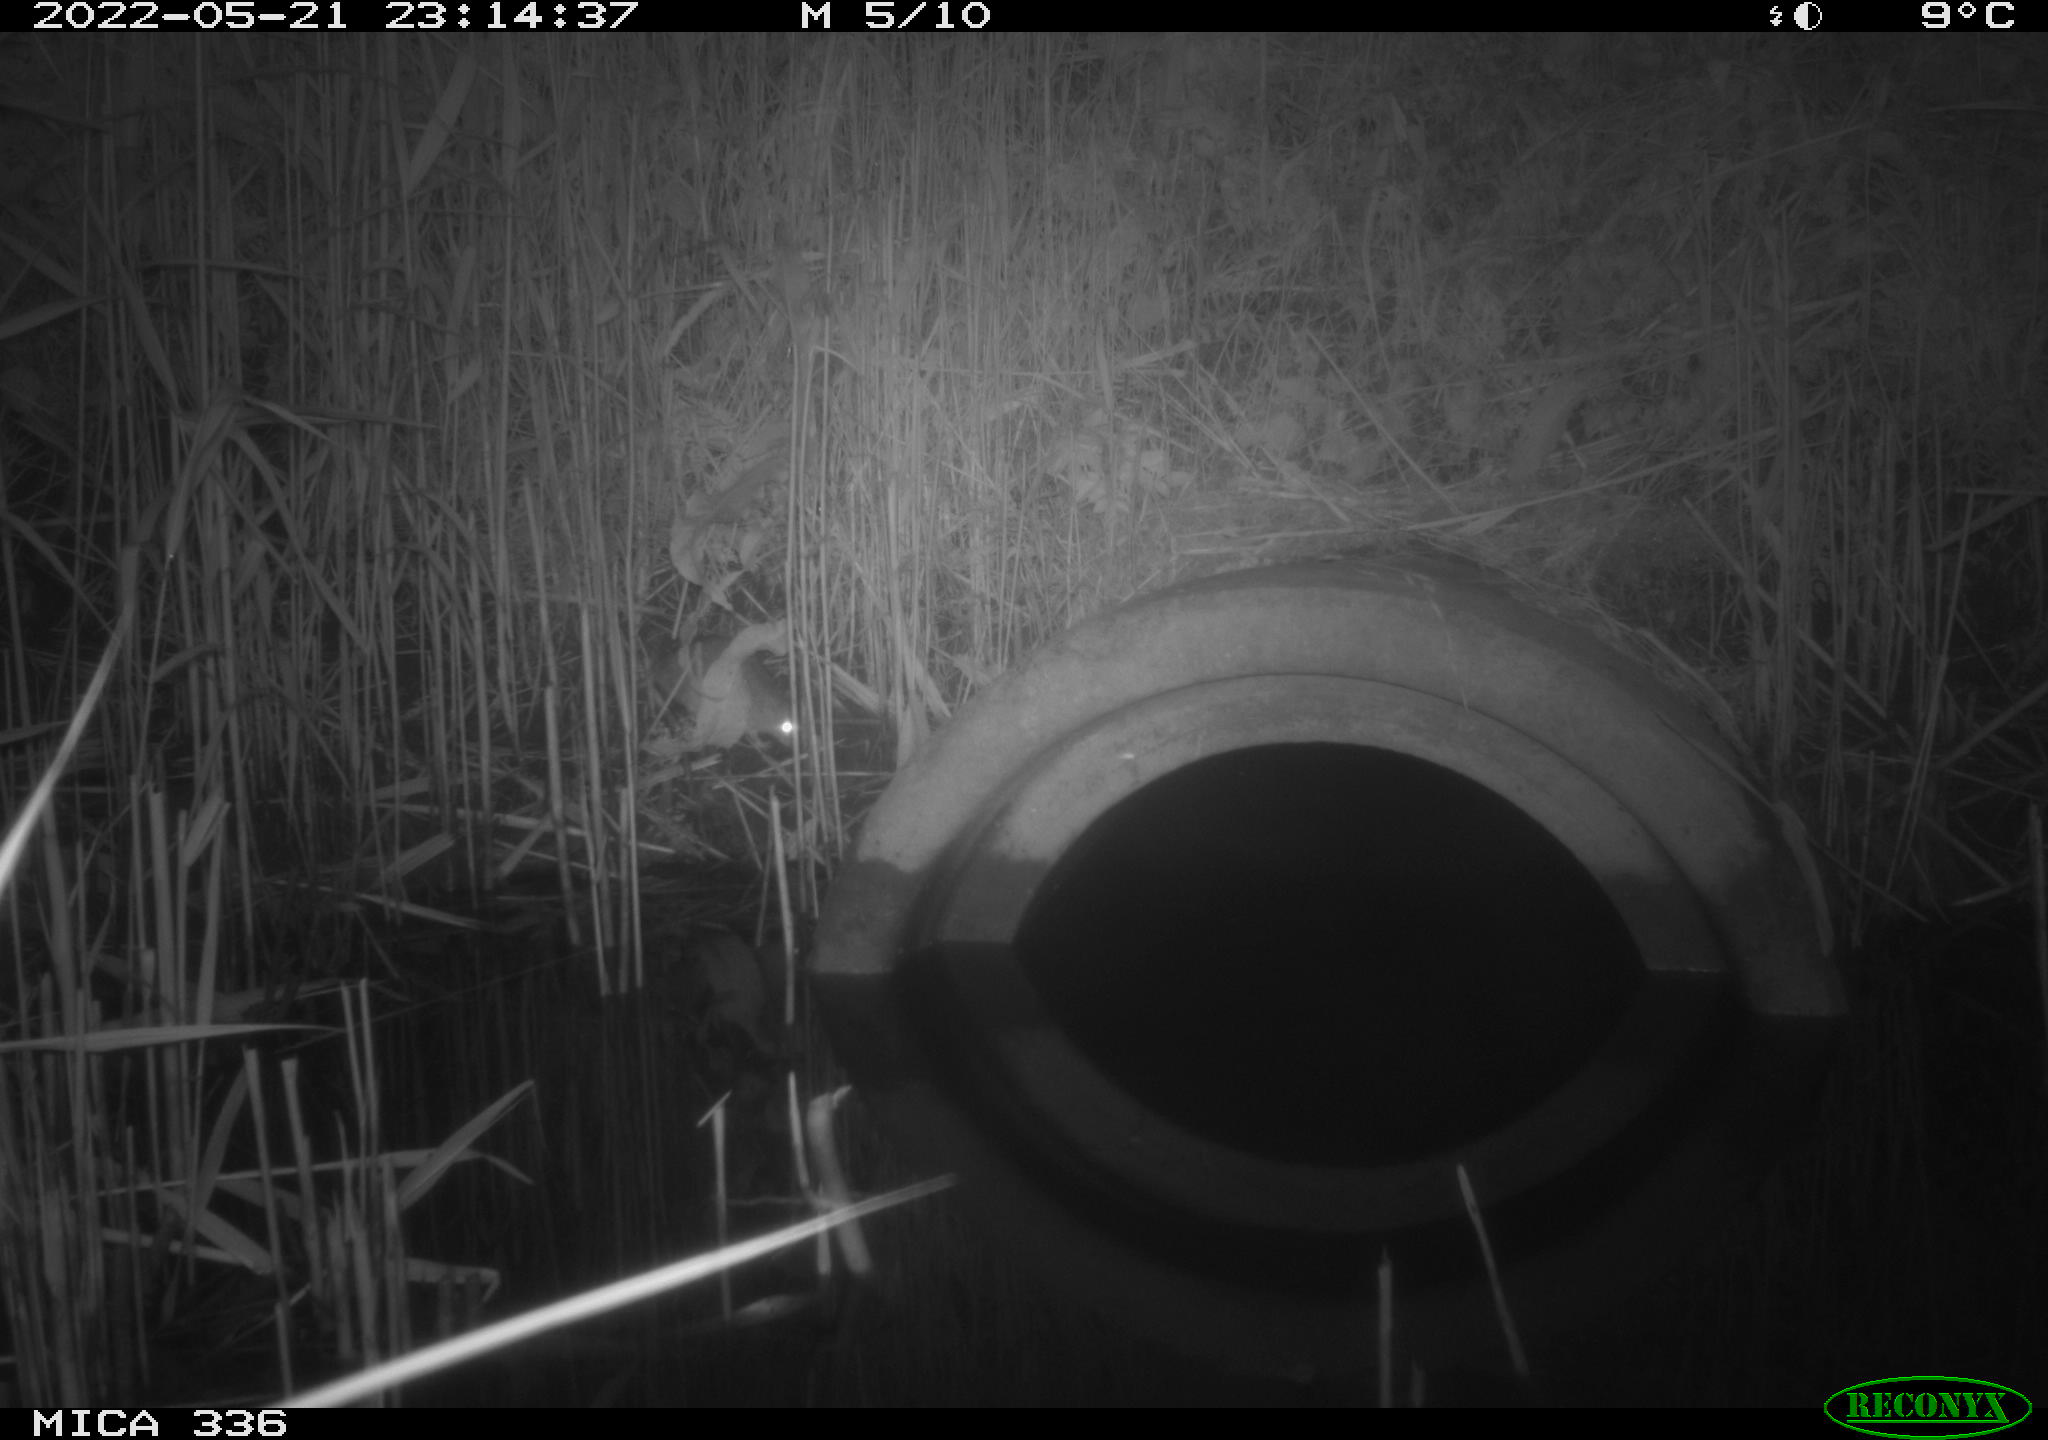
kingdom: Animalia
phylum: Chordata
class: Mammalia
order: Rodentia
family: Muridae
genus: Rattus
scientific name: Rattus norvegicus
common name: Brown rat
